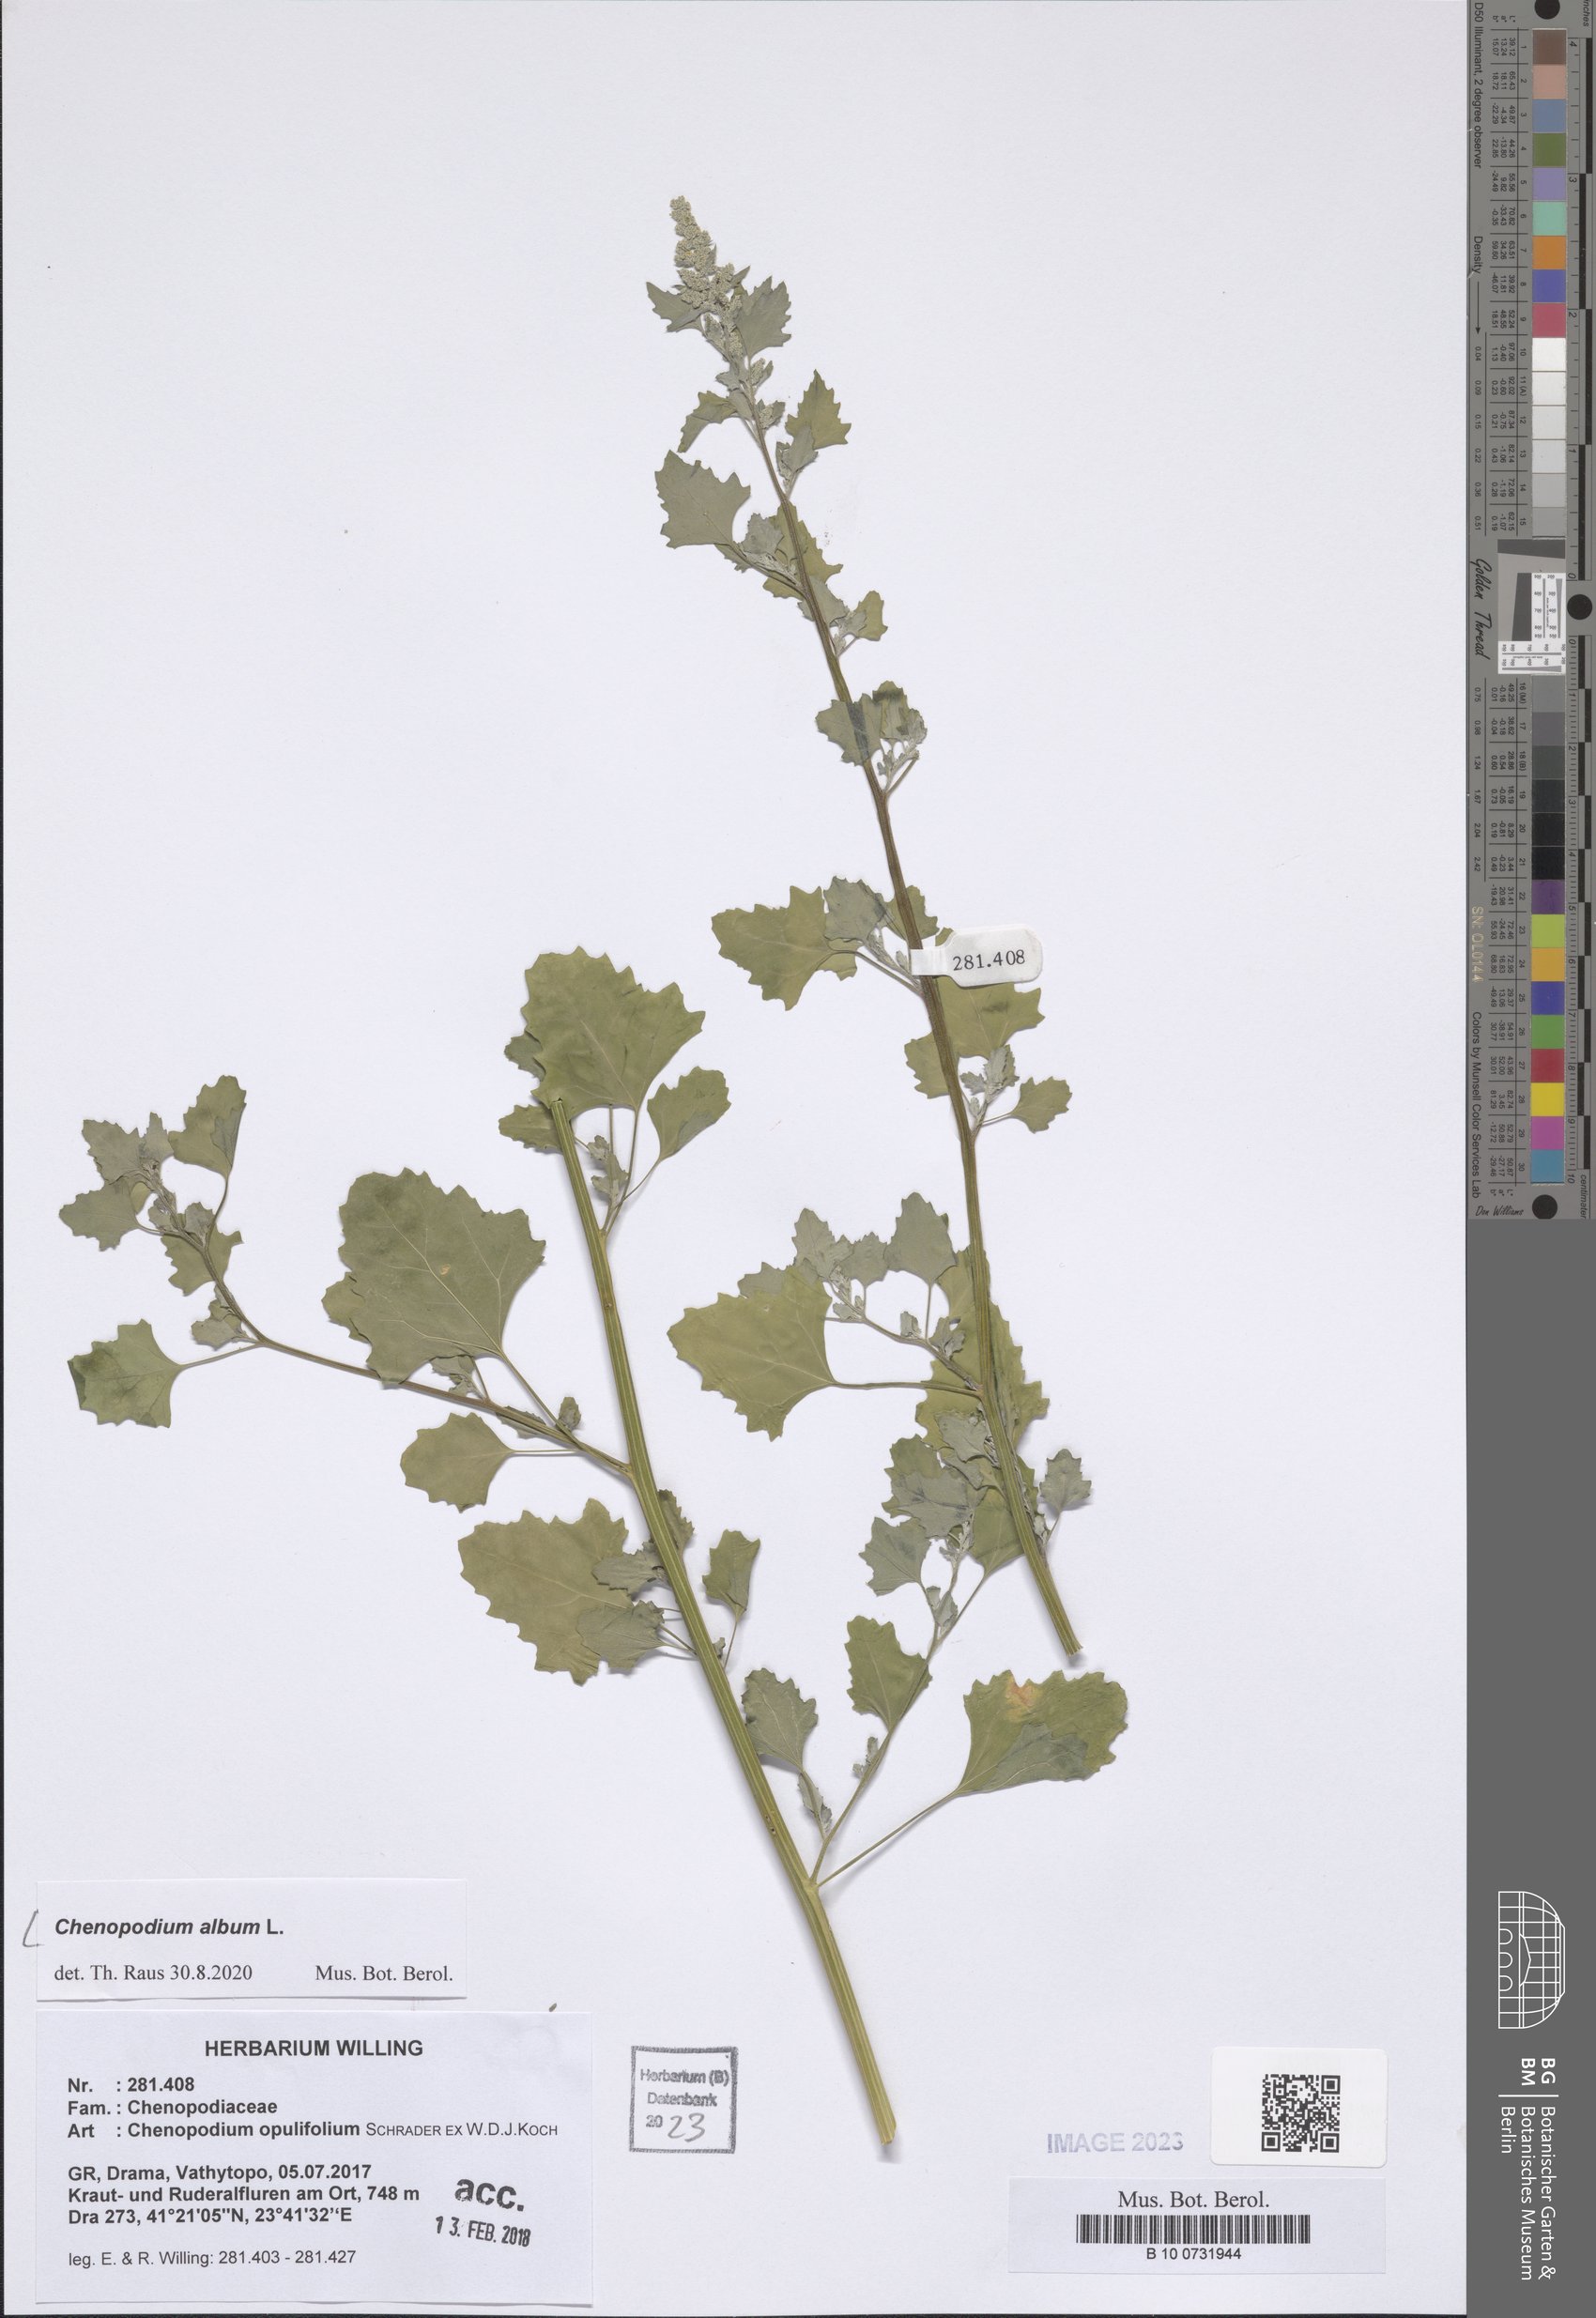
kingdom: Plantae
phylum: Tracheophyta
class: Magnoliopsida
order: Caryophyllales
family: Amaranthaceae
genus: Chenopodium
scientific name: Chenopodium album
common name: Fat-hen
